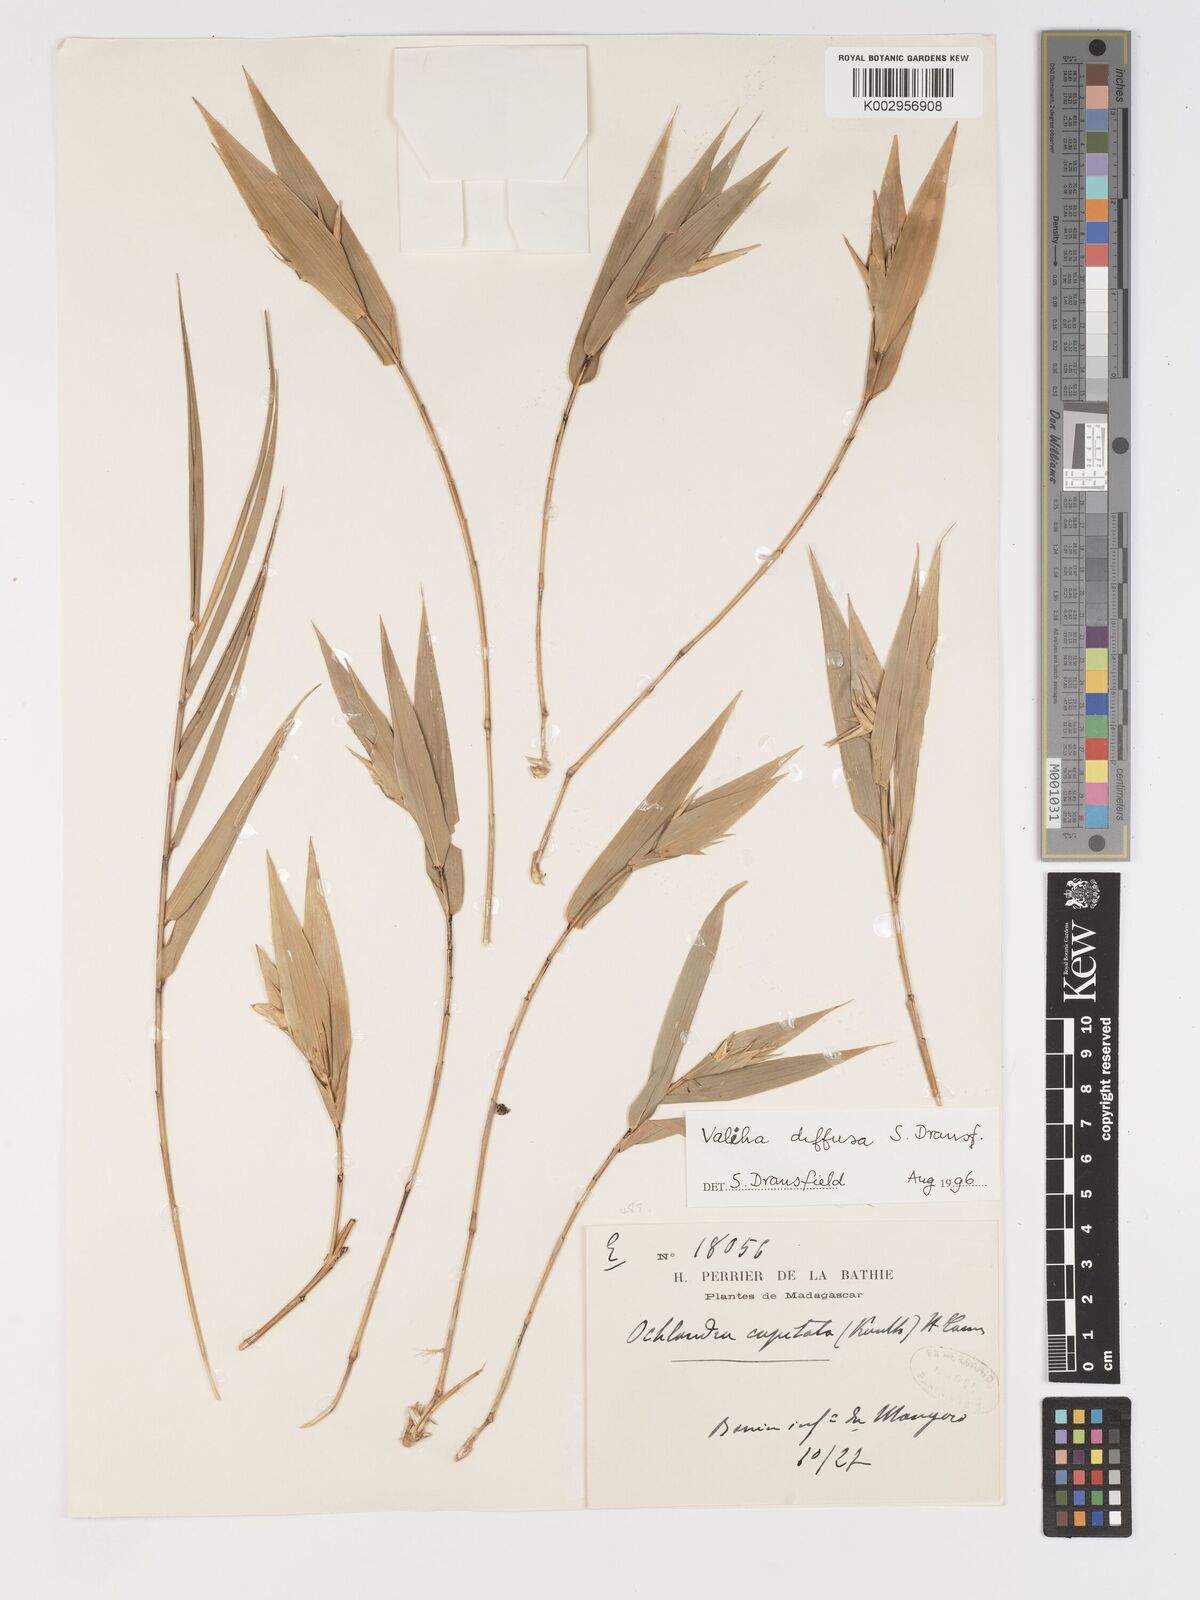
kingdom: Plantae
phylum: Tracheophyta
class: Liliopsida
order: Poales
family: Poaceae
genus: Valiha
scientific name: Valiha diffusa
